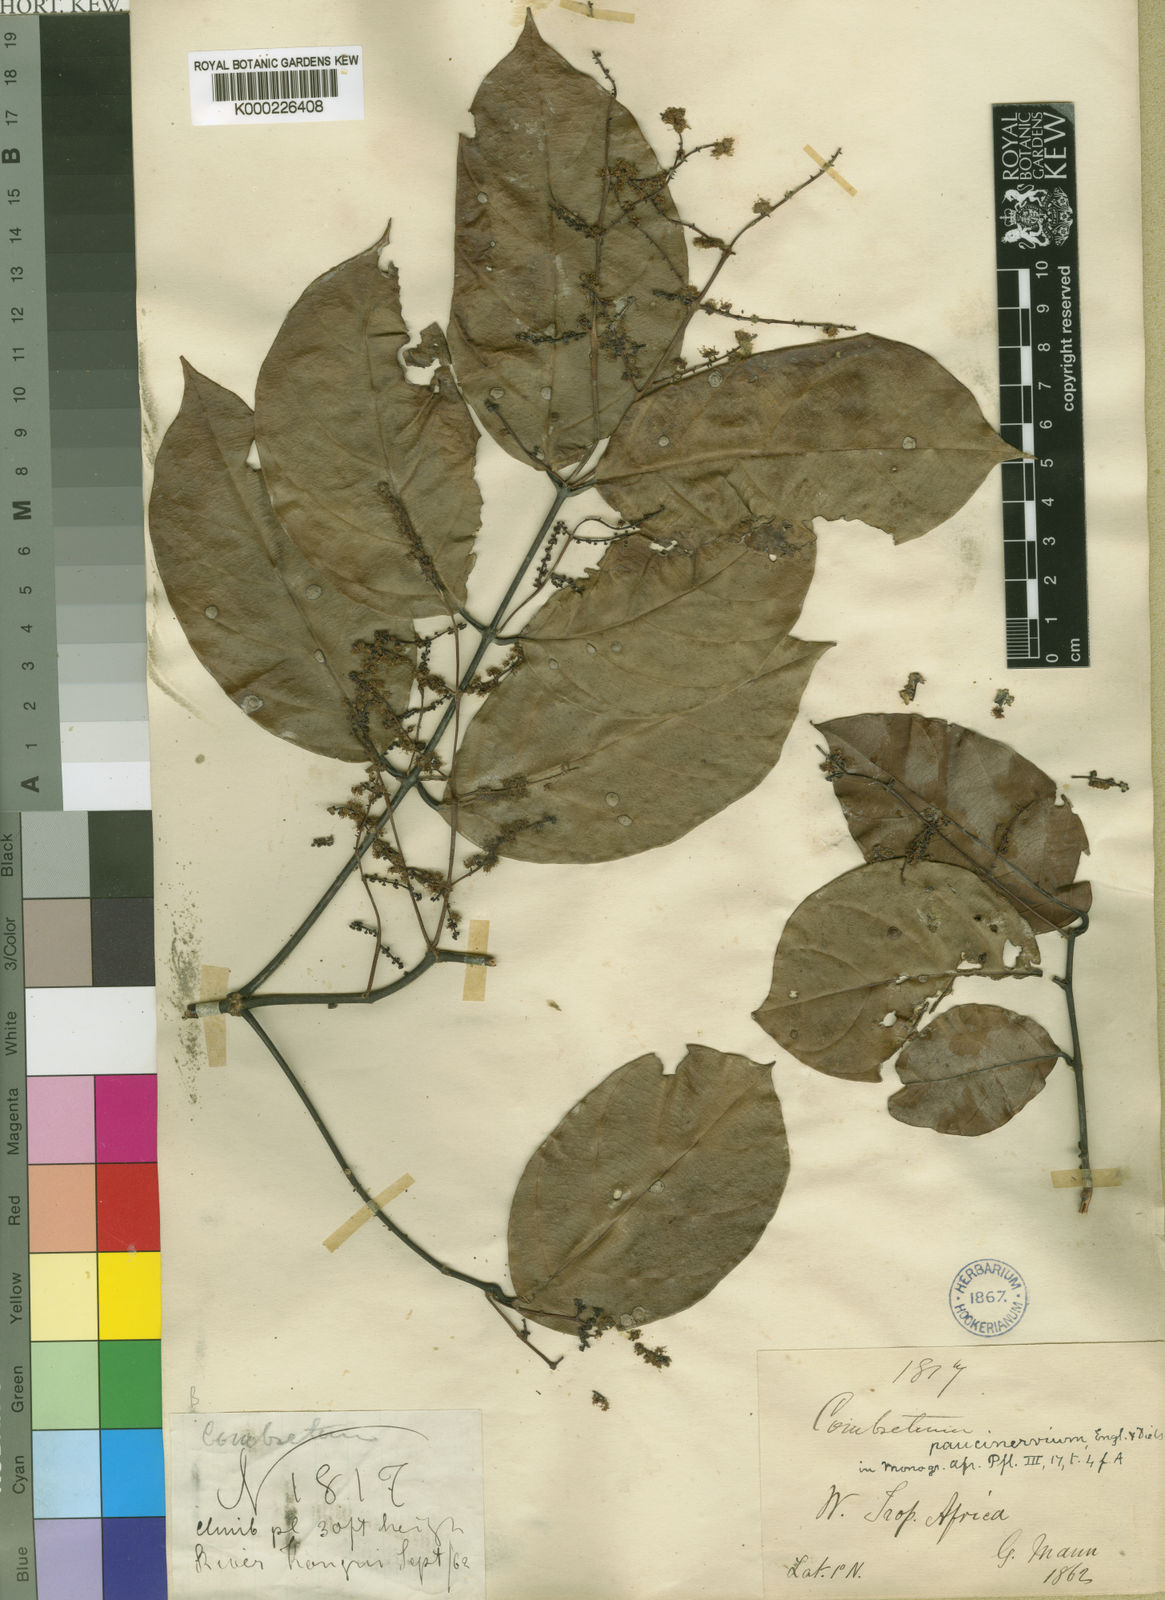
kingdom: Plantae
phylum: Tracheophyta
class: Magnoliopsida
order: Myrtales
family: Combretaceae
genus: Combretum
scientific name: Combretum paucinervium
